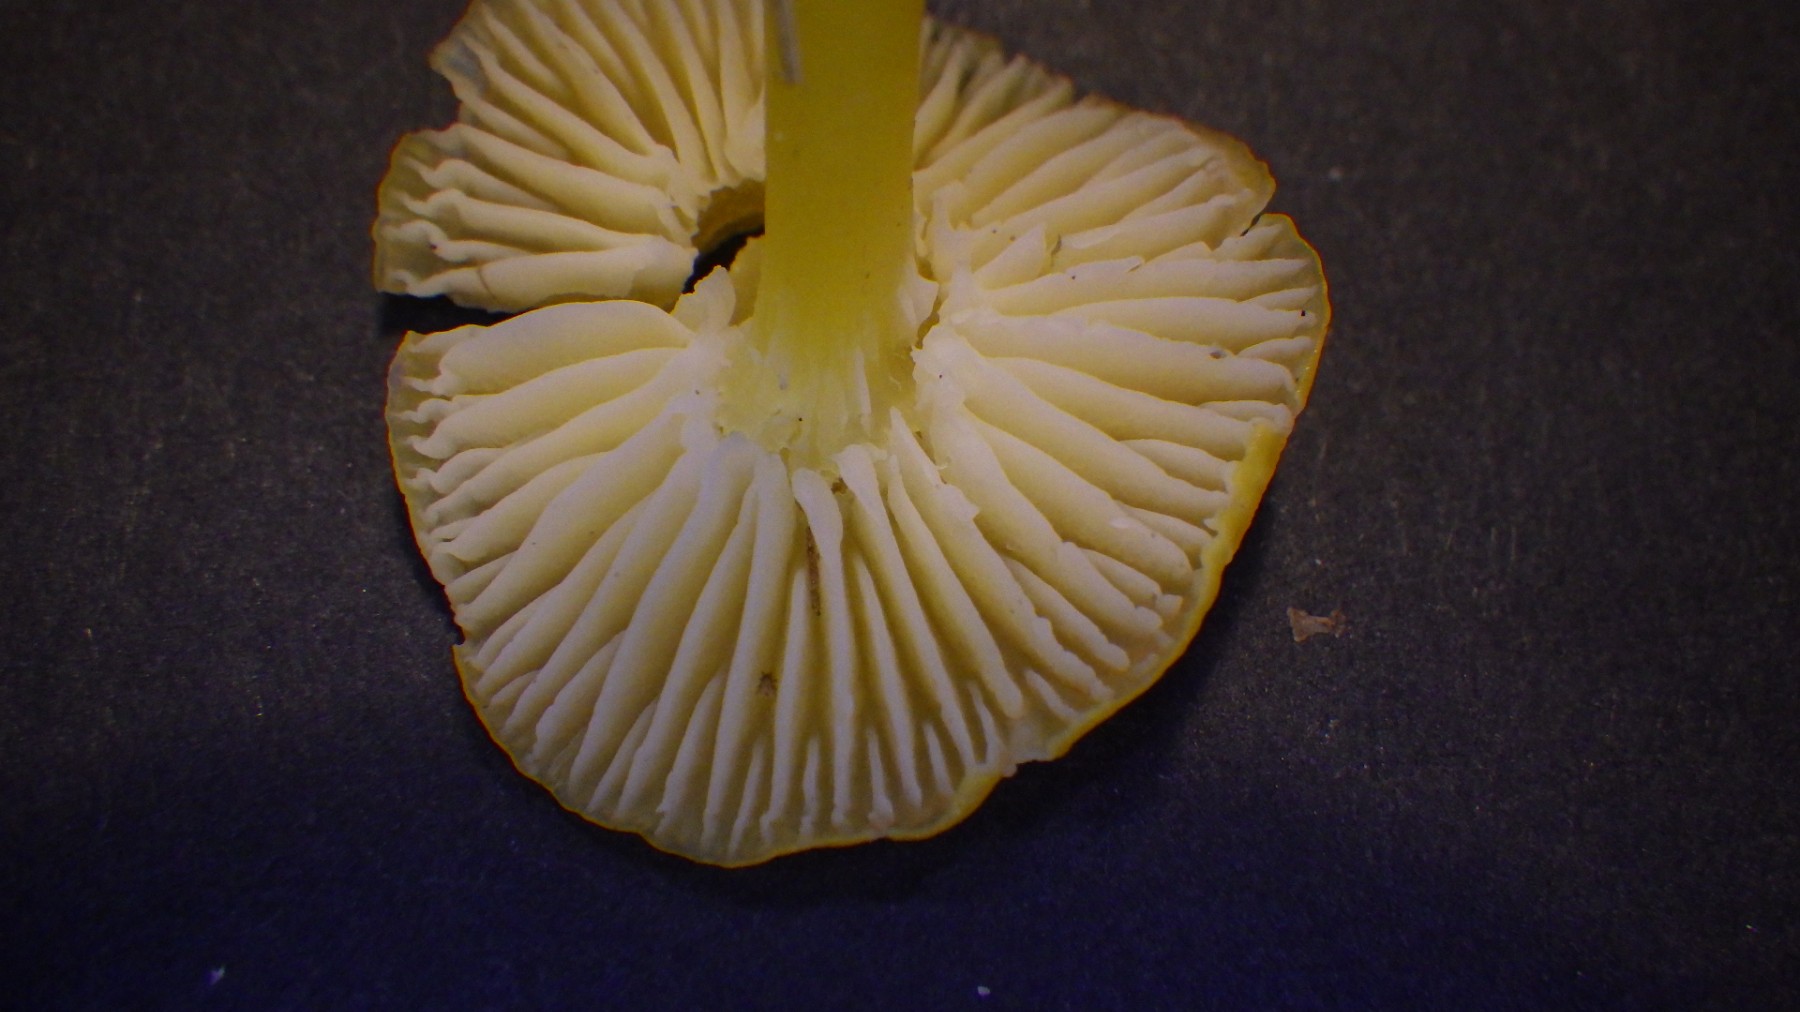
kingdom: Fungi
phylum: Basidiomycota
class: Agaricomycetes
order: Agaricales
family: Hygrophoraceae
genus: Hygrocybe
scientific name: Hygrocybe ceracea
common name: voksgul vokshat
